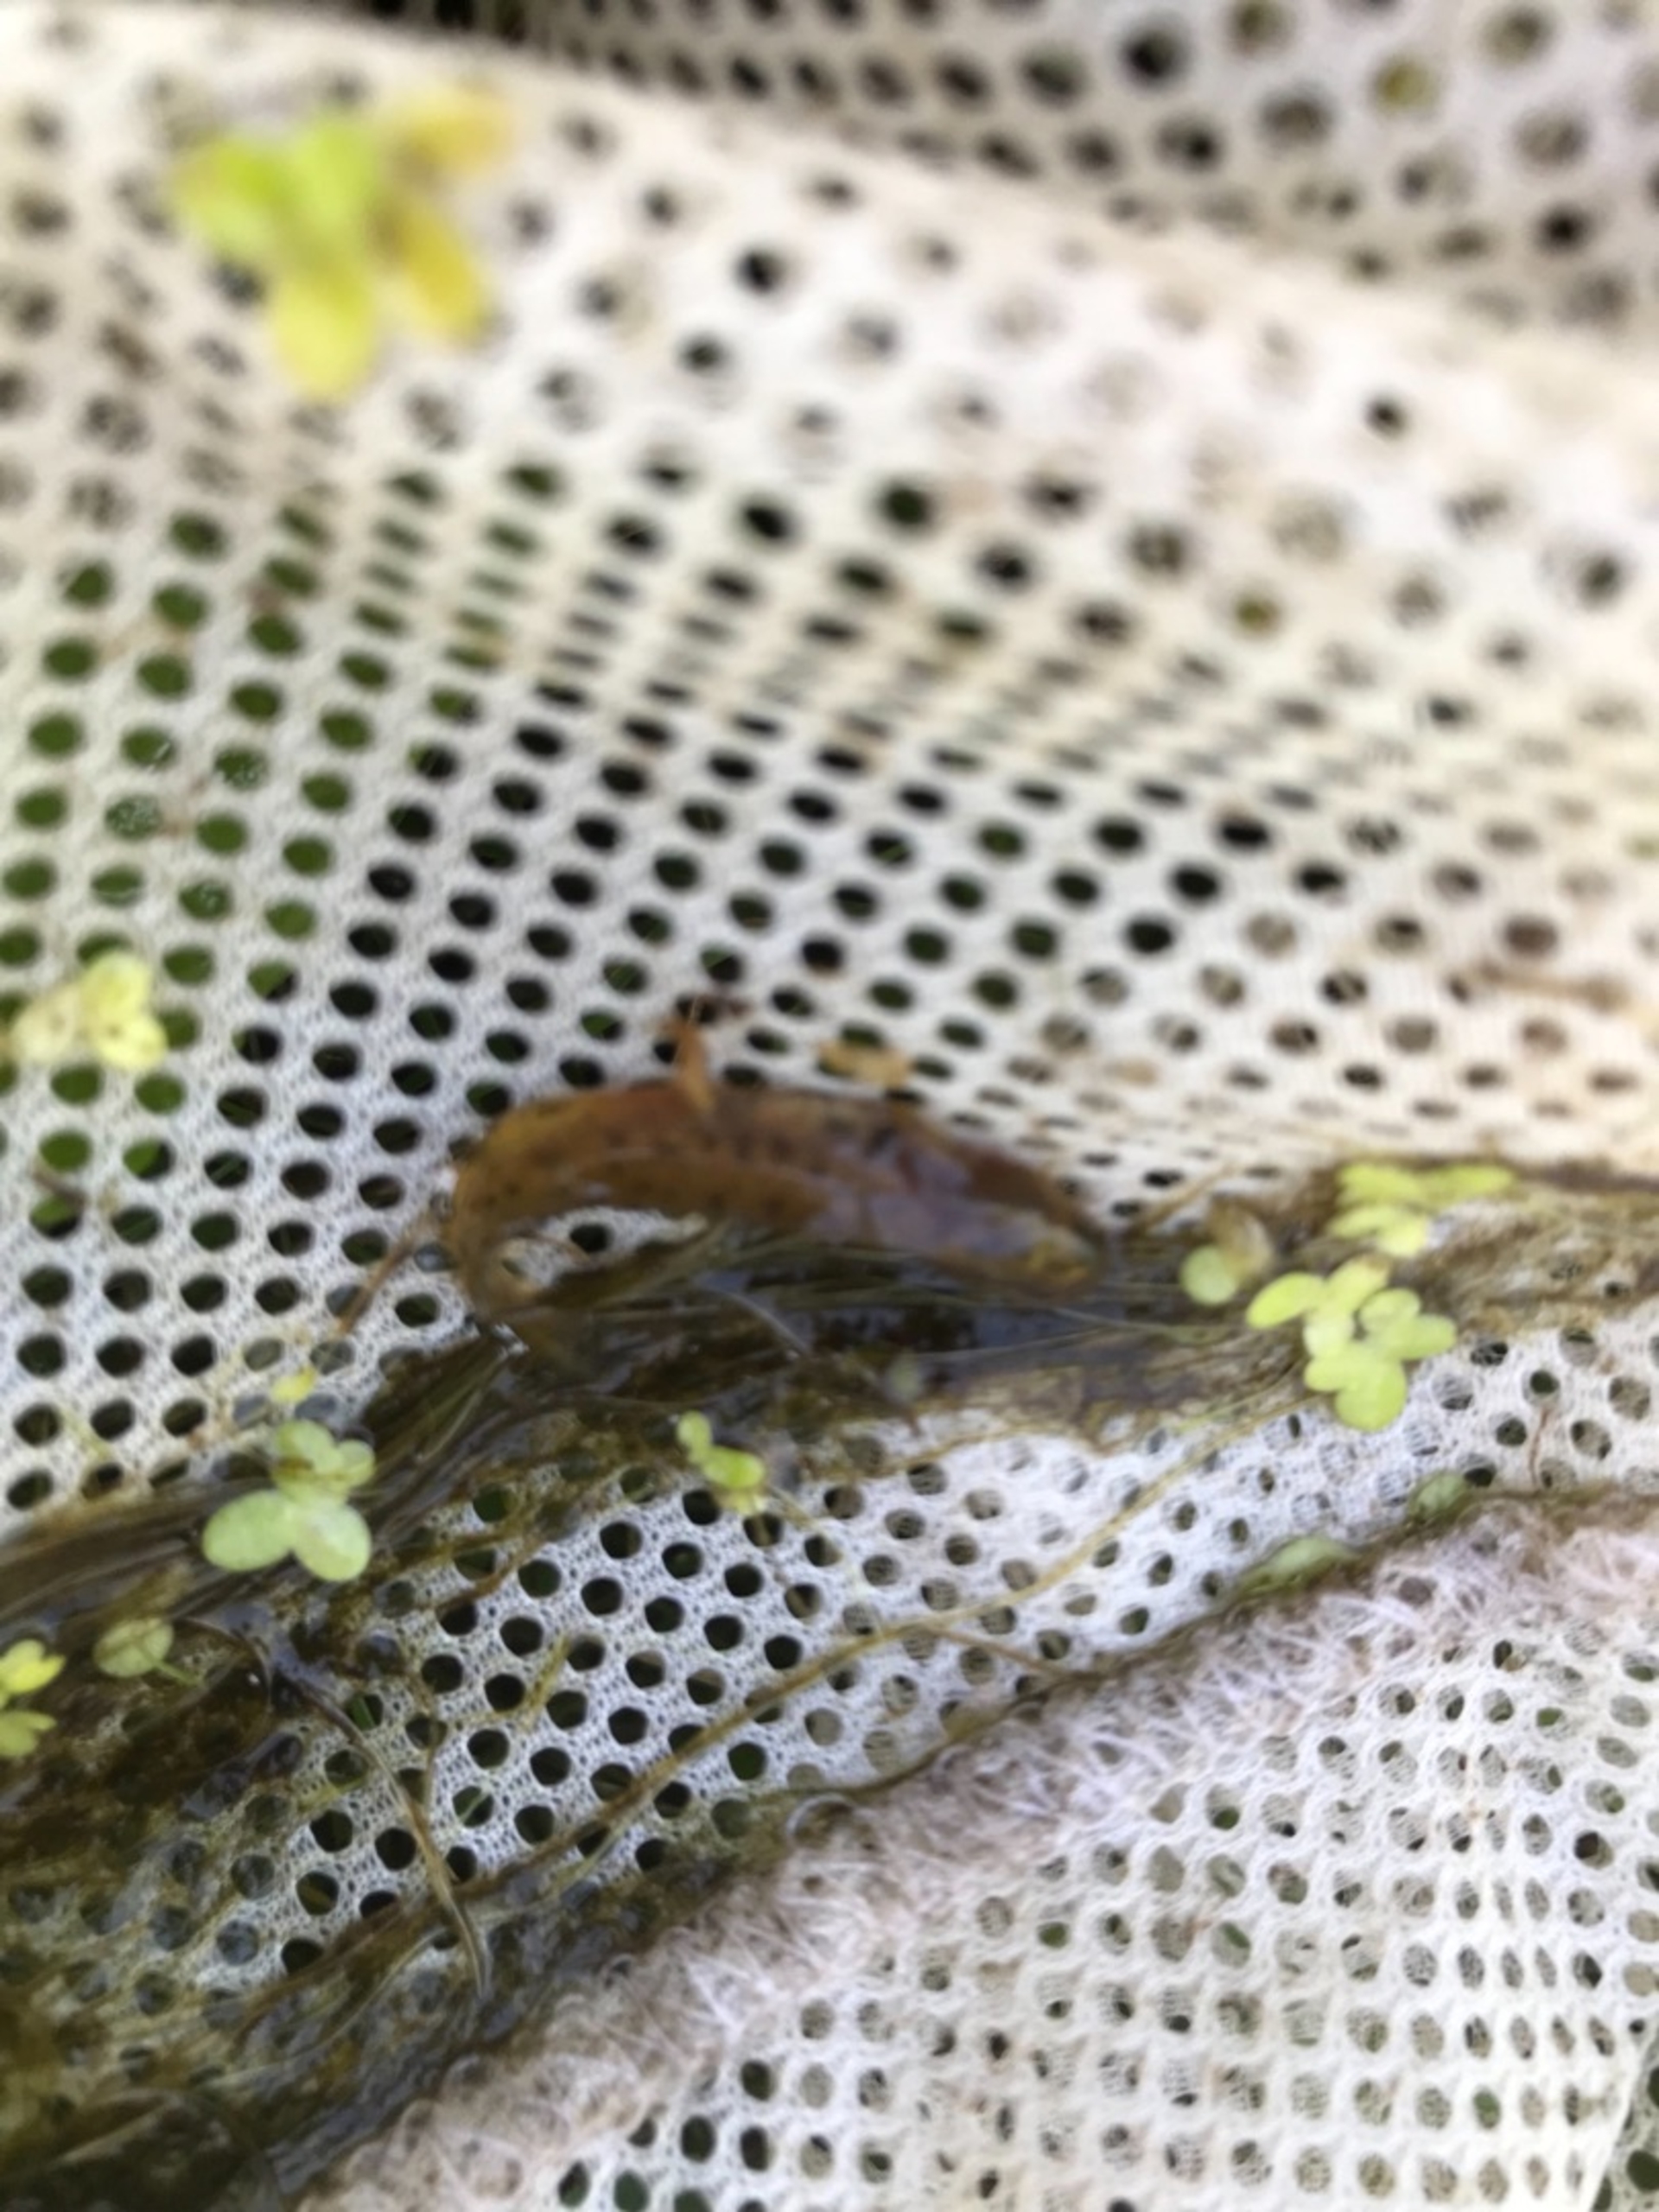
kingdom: Animalia
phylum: Chordata
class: Amphibia
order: Caudata
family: Salamandridae
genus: Lissotriton
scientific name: Lissotriton vulgaris
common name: Lille vandsalamander
